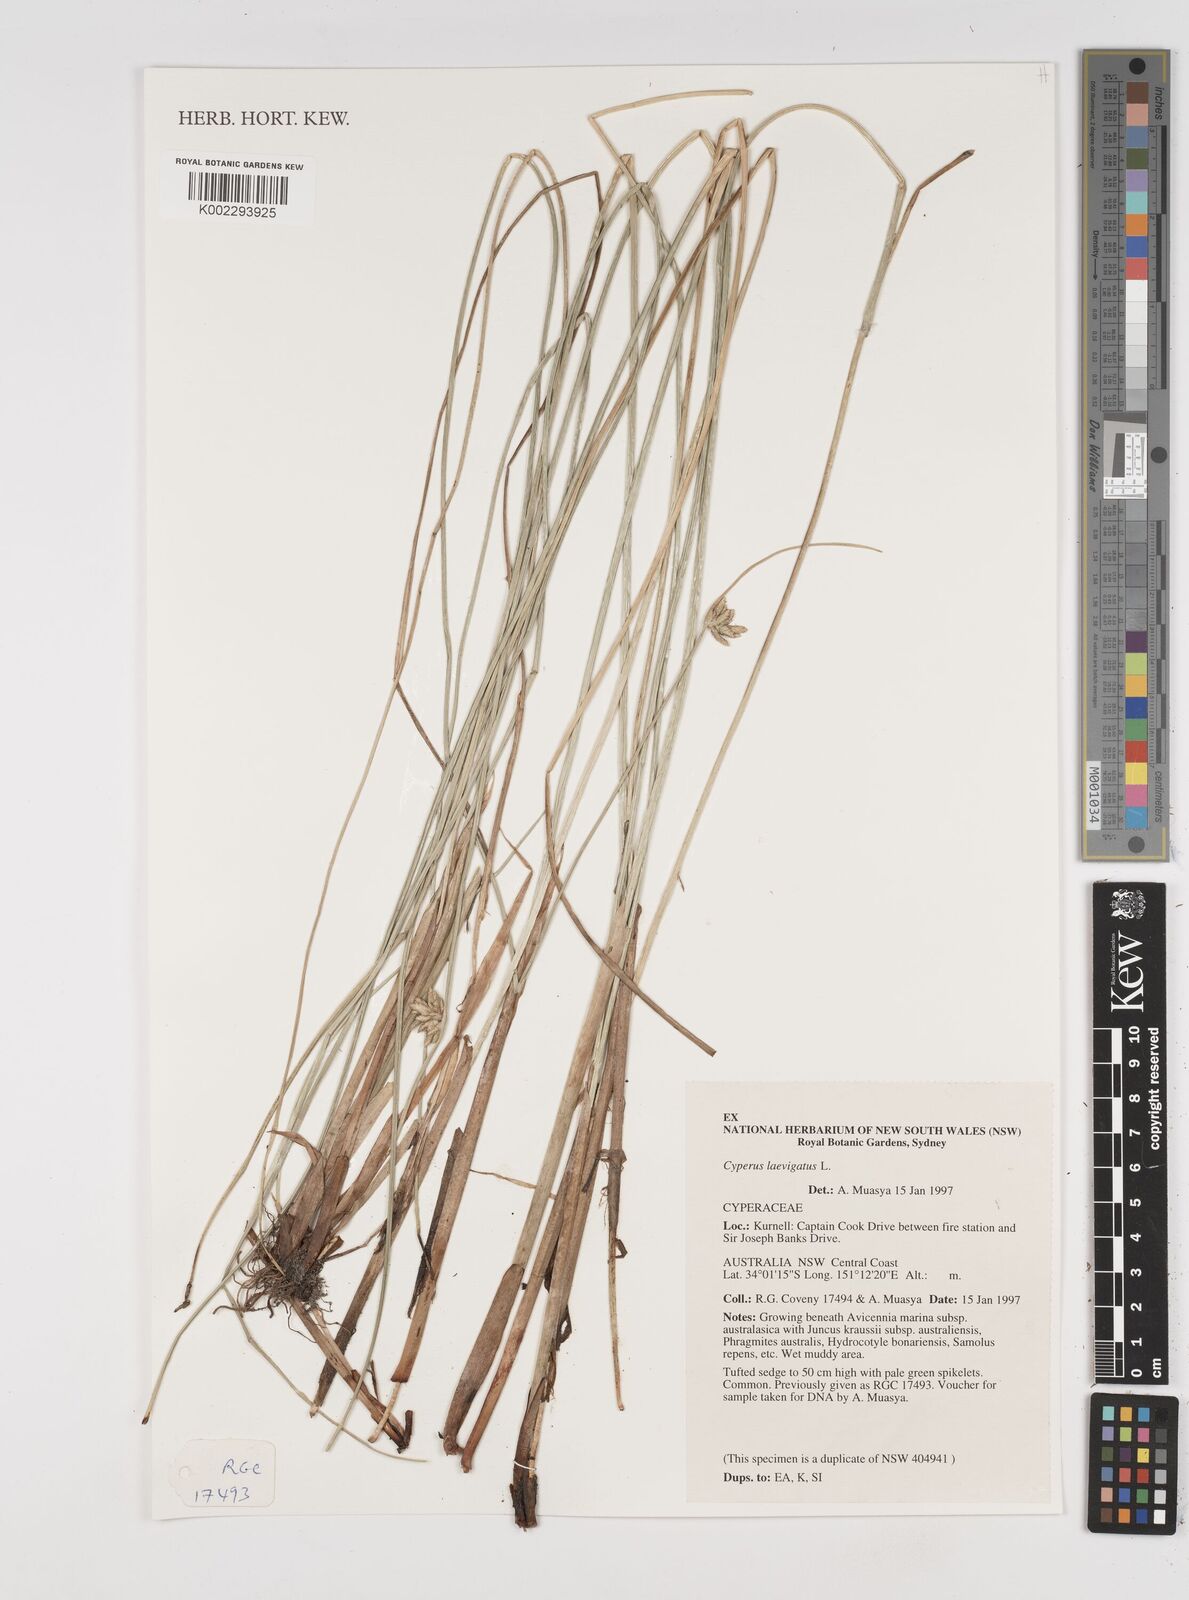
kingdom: Plantae
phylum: Tracheophyta
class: Liliopsida
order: Poales
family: Cyperaceae
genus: Cyperus
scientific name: Cyperus laevigatus
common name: Smooth flat sedge
